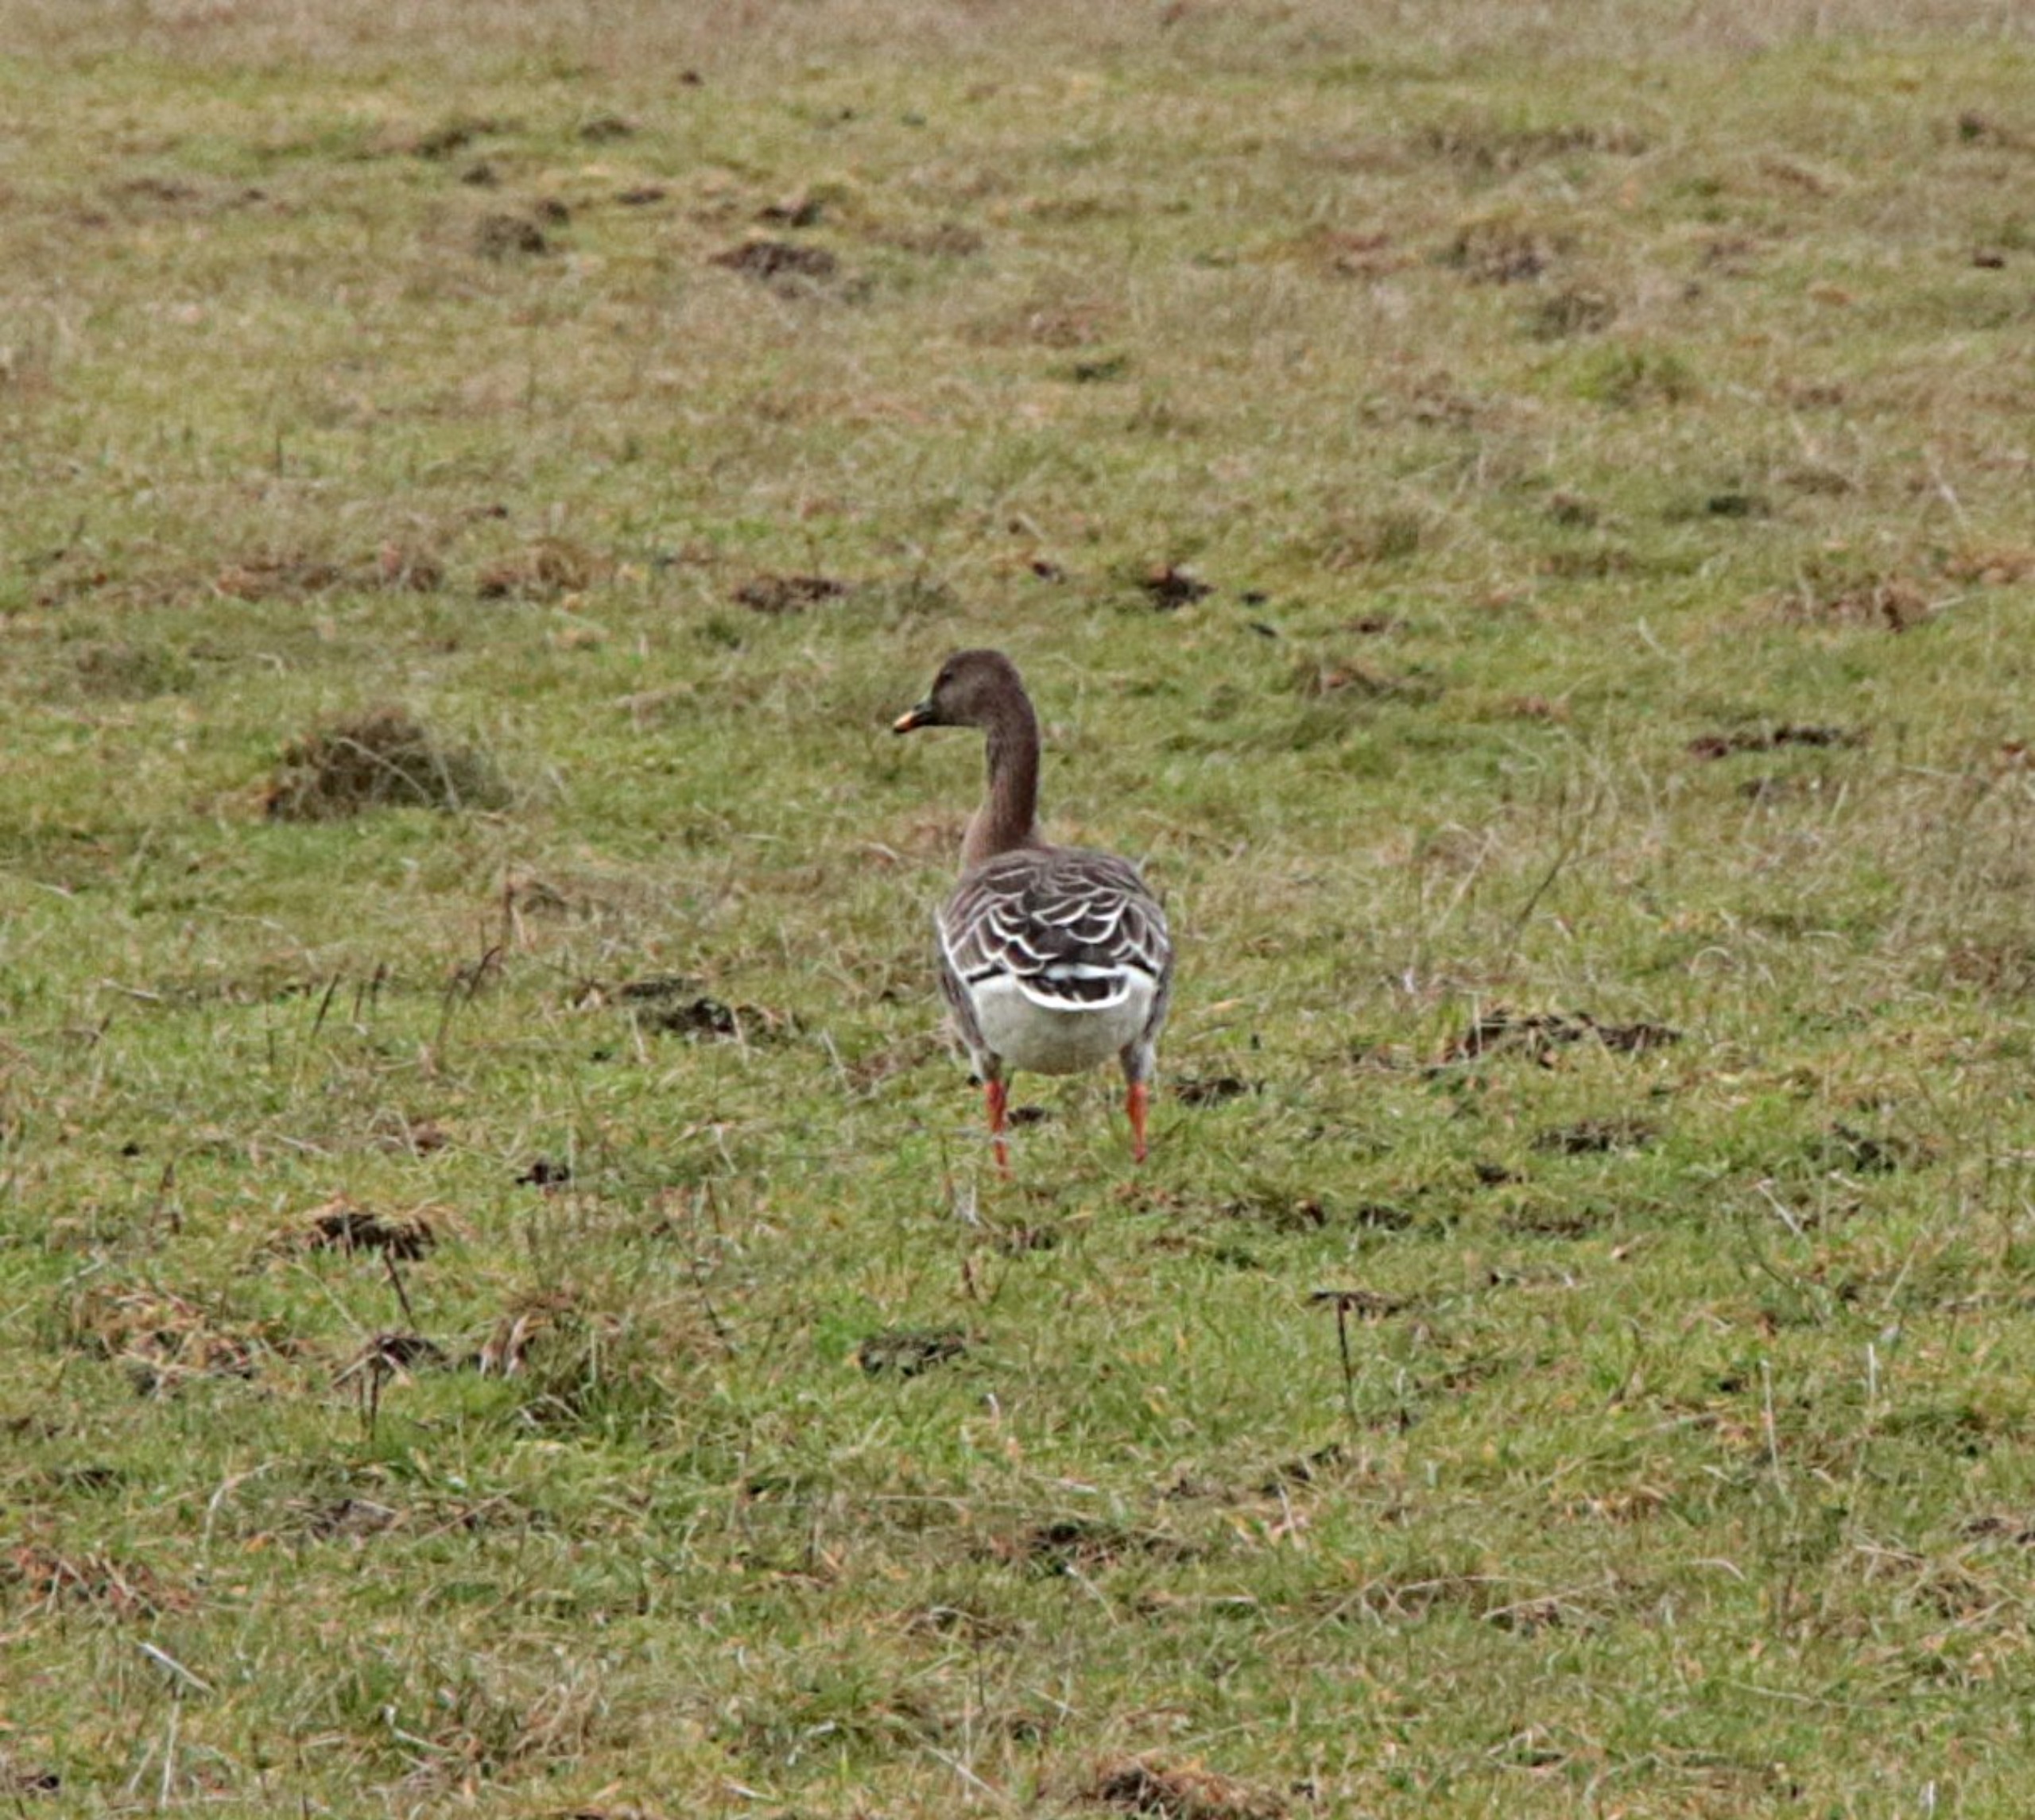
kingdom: Animalia
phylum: Chordata
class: Aves
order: Anseriformes
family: Anatidae
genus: Anser
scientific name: Anser
